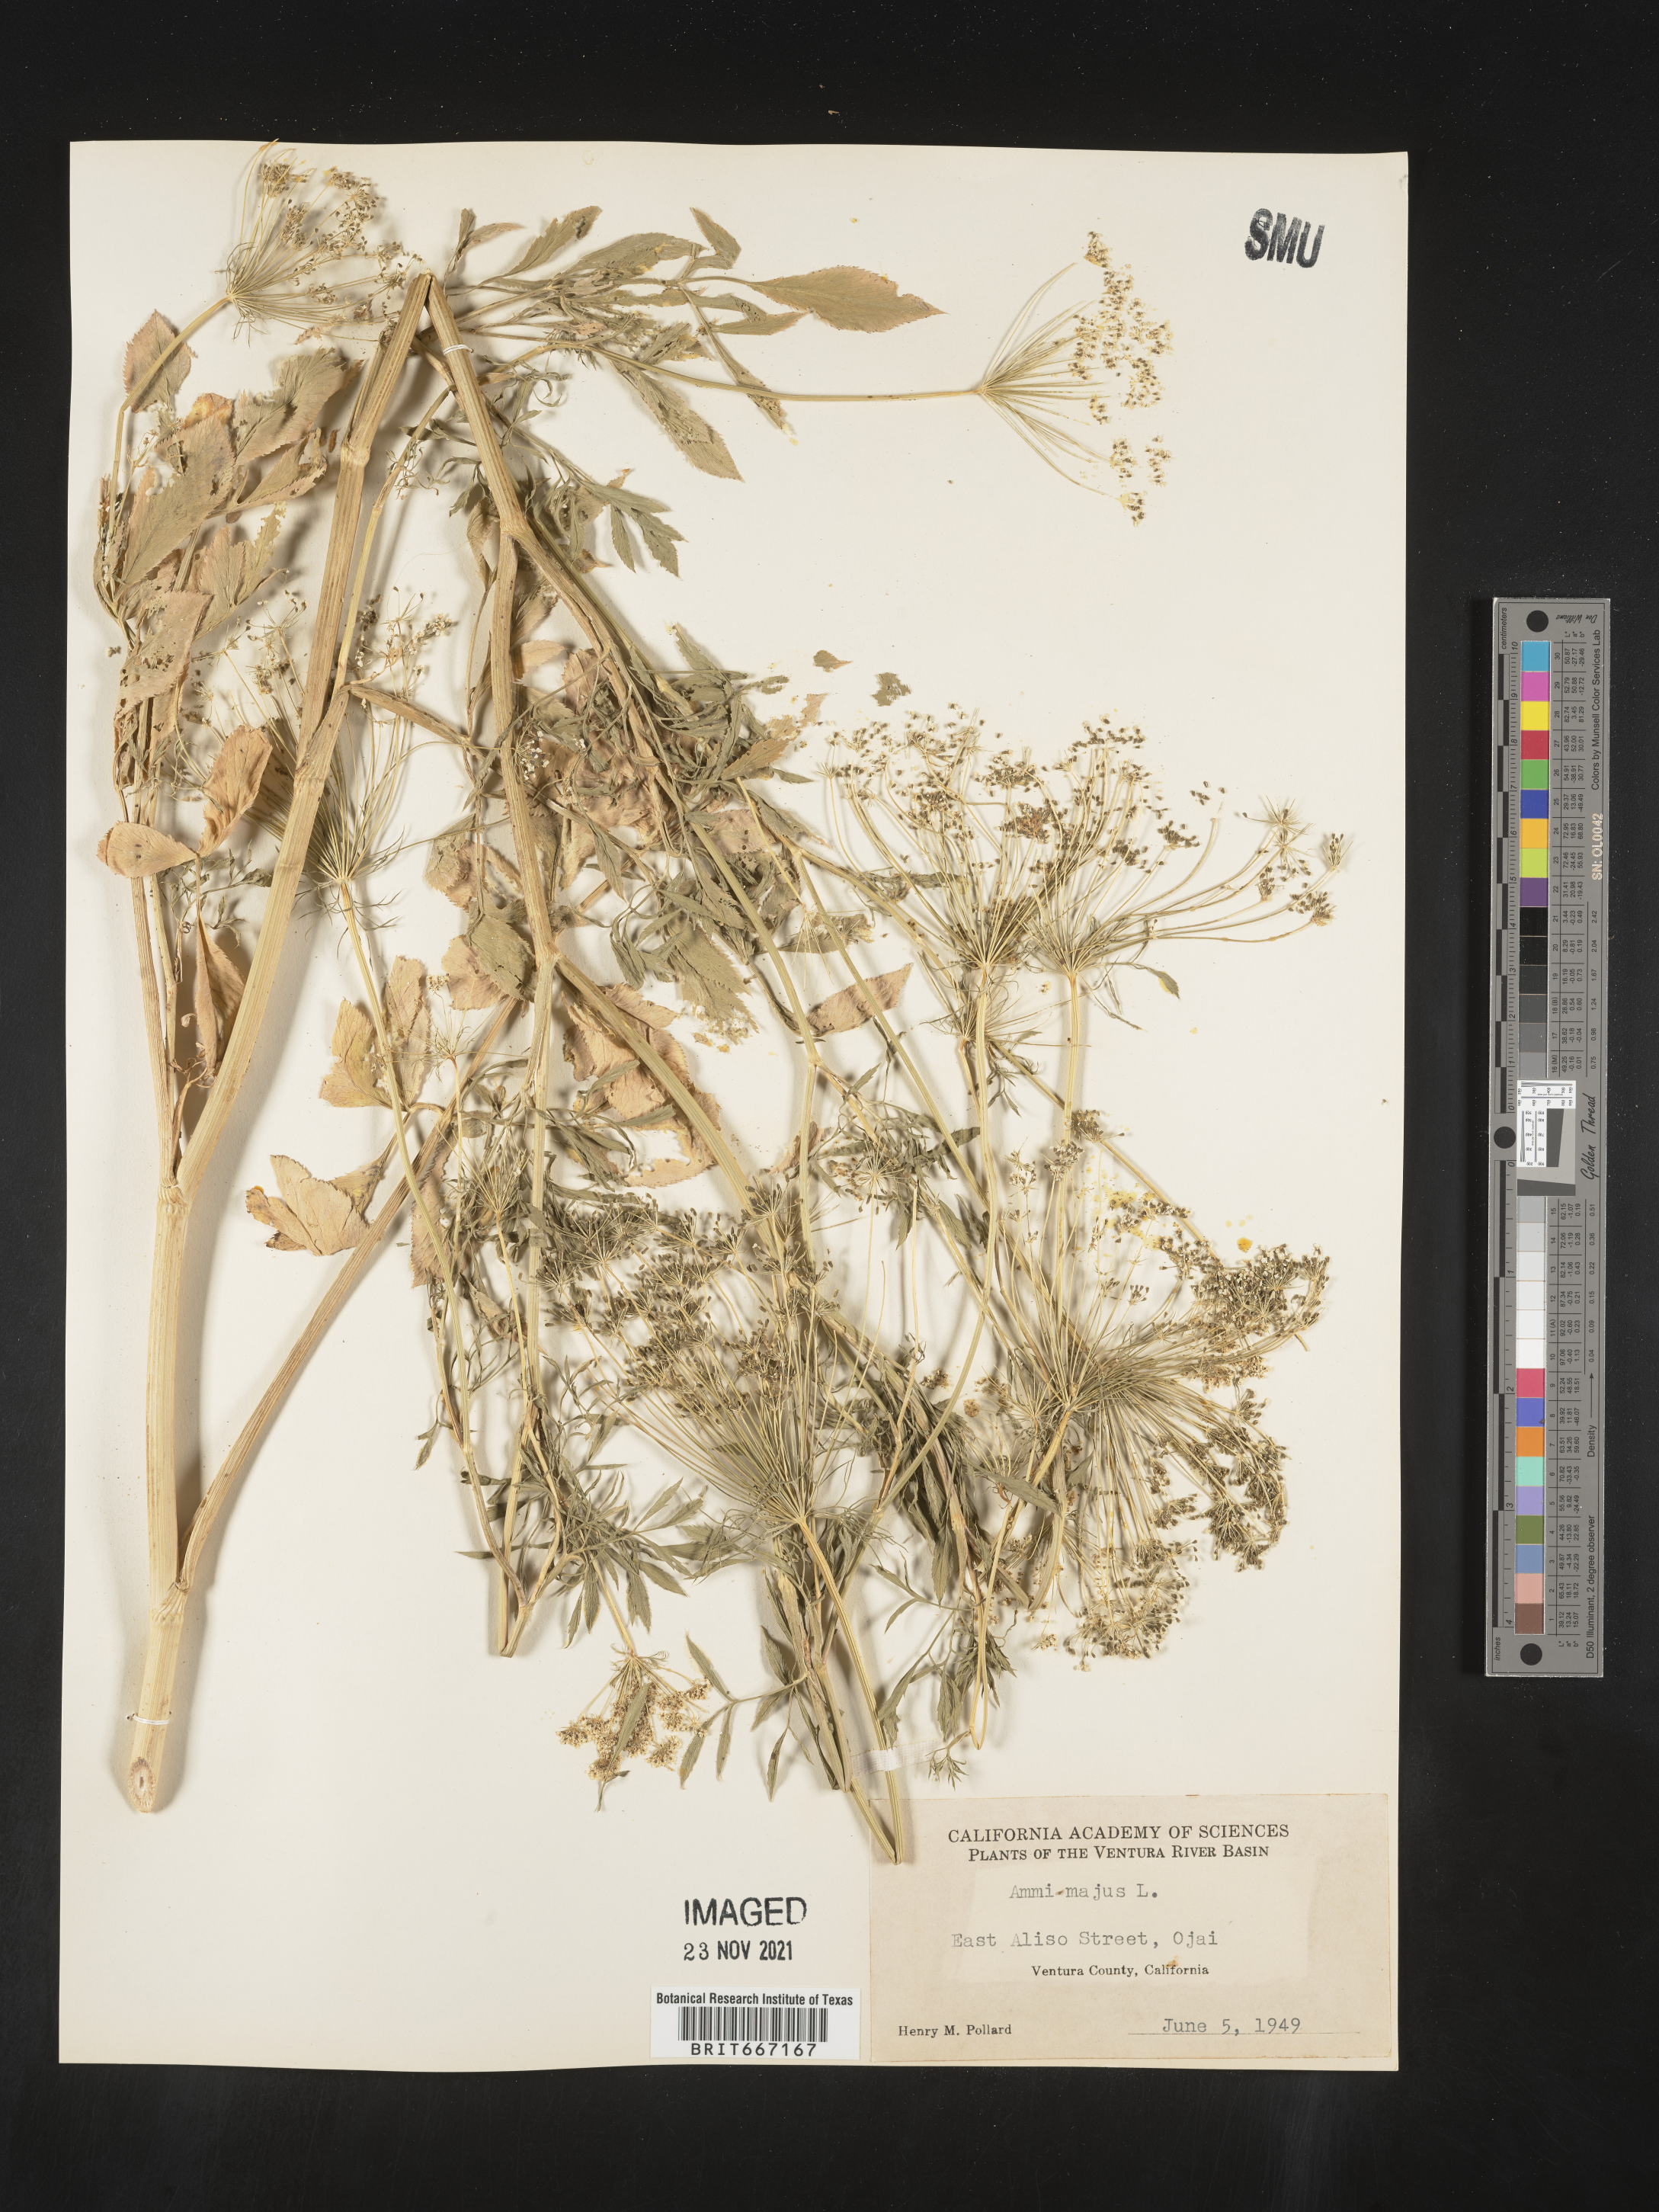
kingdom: Plantae
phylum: Tracheophyta
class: Magnoliopsida
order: Apiales
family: Apiaceae
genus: Ammi
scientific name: Ammi
